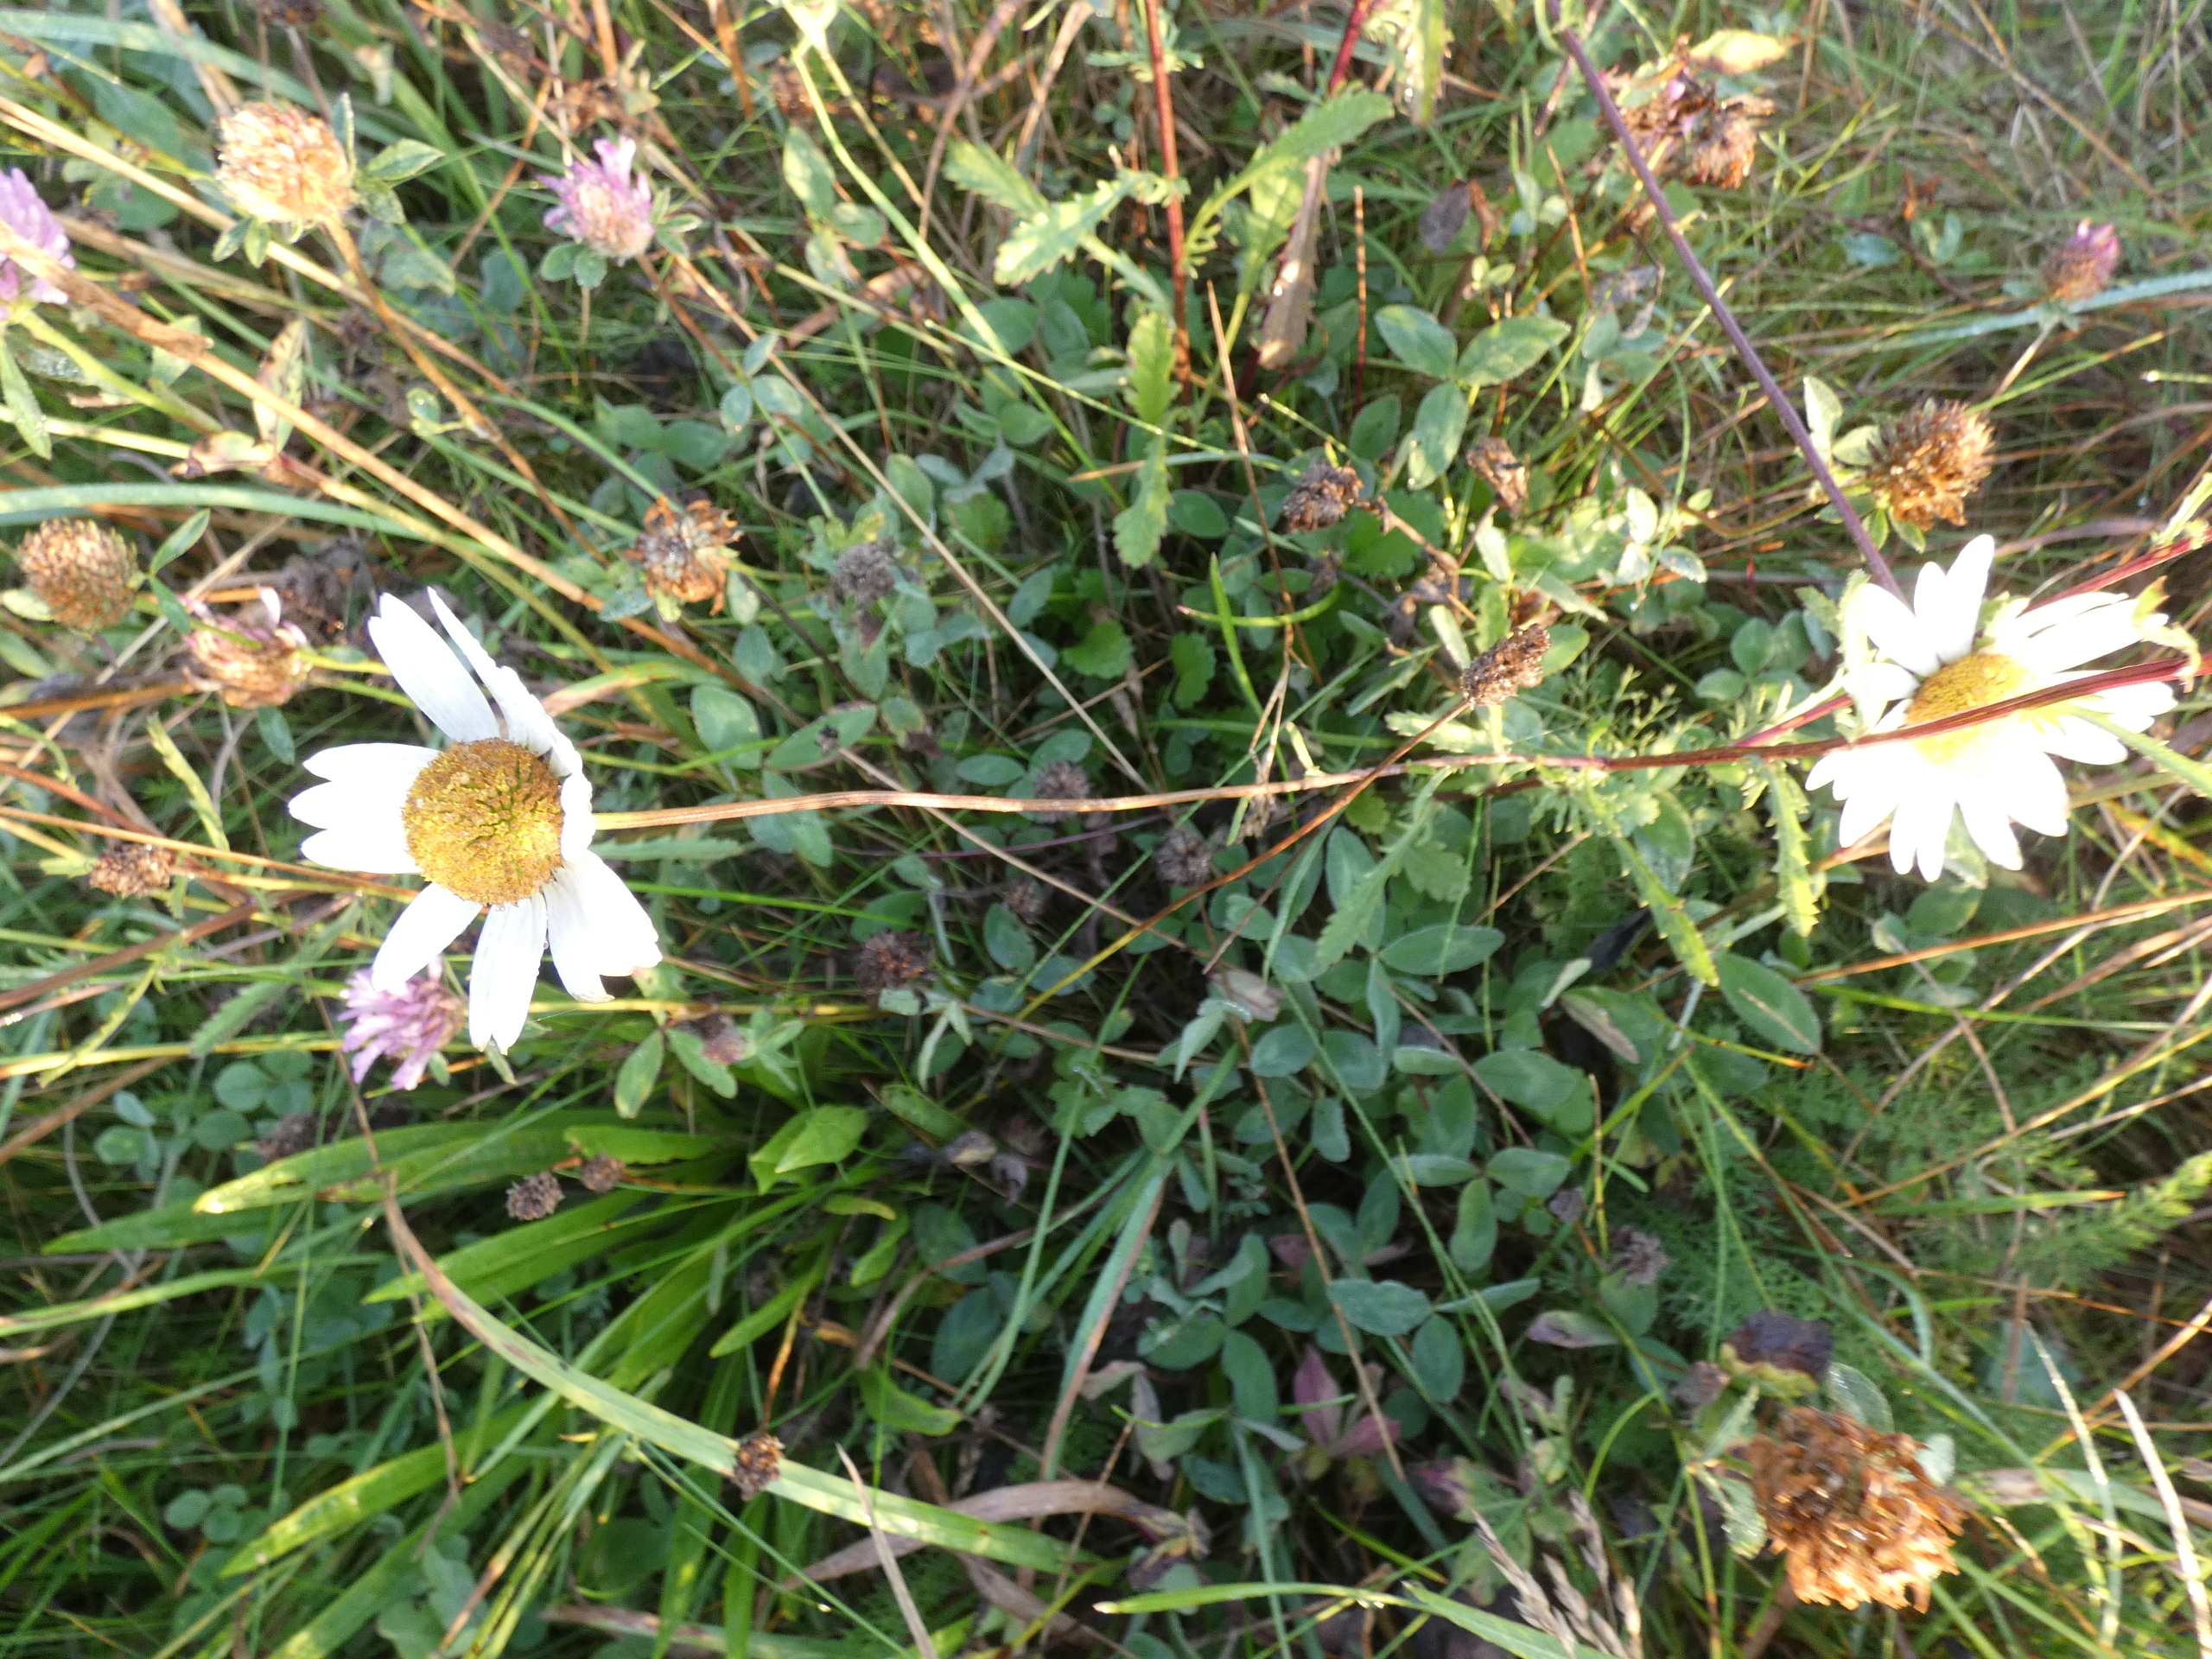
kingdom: Plantae
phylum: Tracheophyta
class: Magnoliopsida
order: Asterales
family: Asteraceae
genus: Leucanthemum
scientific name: Leucanthemum vulgare
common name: Hvid okseøje
